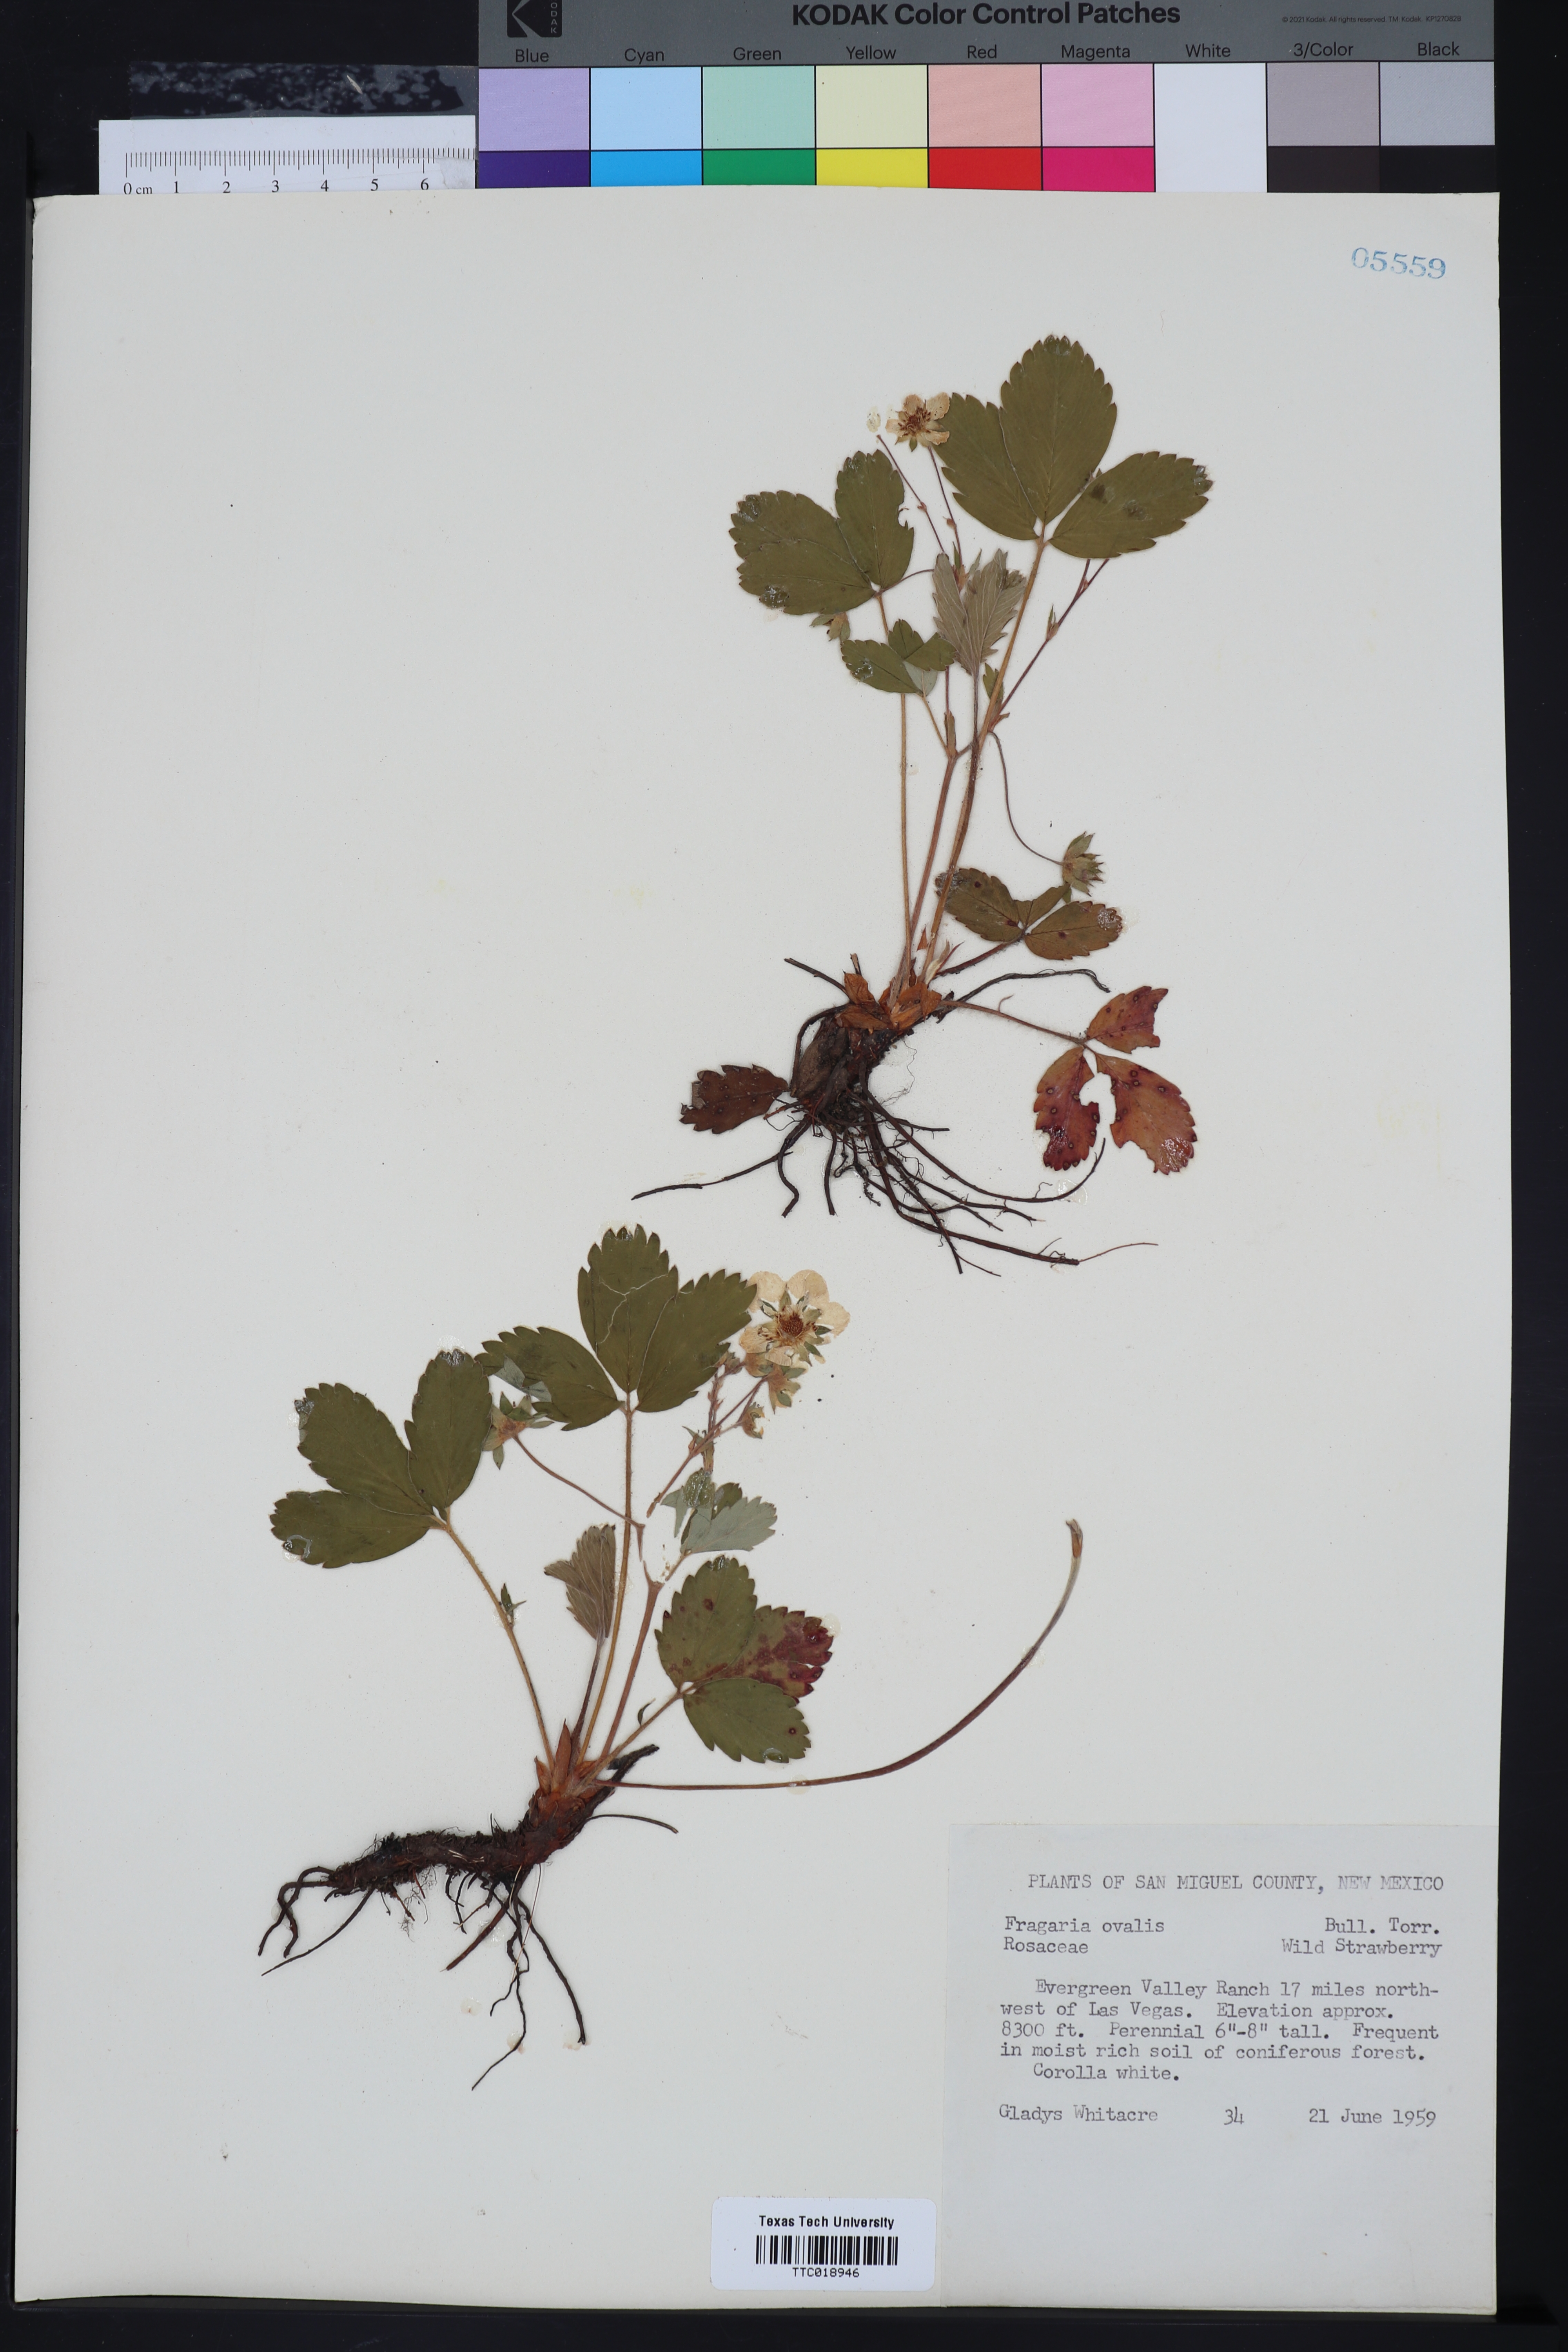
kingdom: Plantae
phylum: Tracheophyta
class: Magnoliopsida
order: Rosales
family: Rosaceae
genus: Fragaria
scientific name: Fragaria virginiana
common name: Thickleaved wild strawberry
